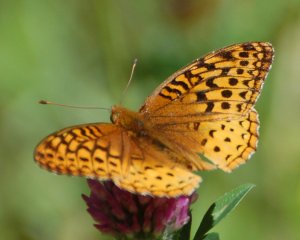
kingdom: Animalia
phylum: Arthropoda
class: Insecta
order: Lepidoptera
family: Nymphalidae
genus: Speyeria
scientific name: Speyeria cybele
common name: Great Spangled Fritillary
